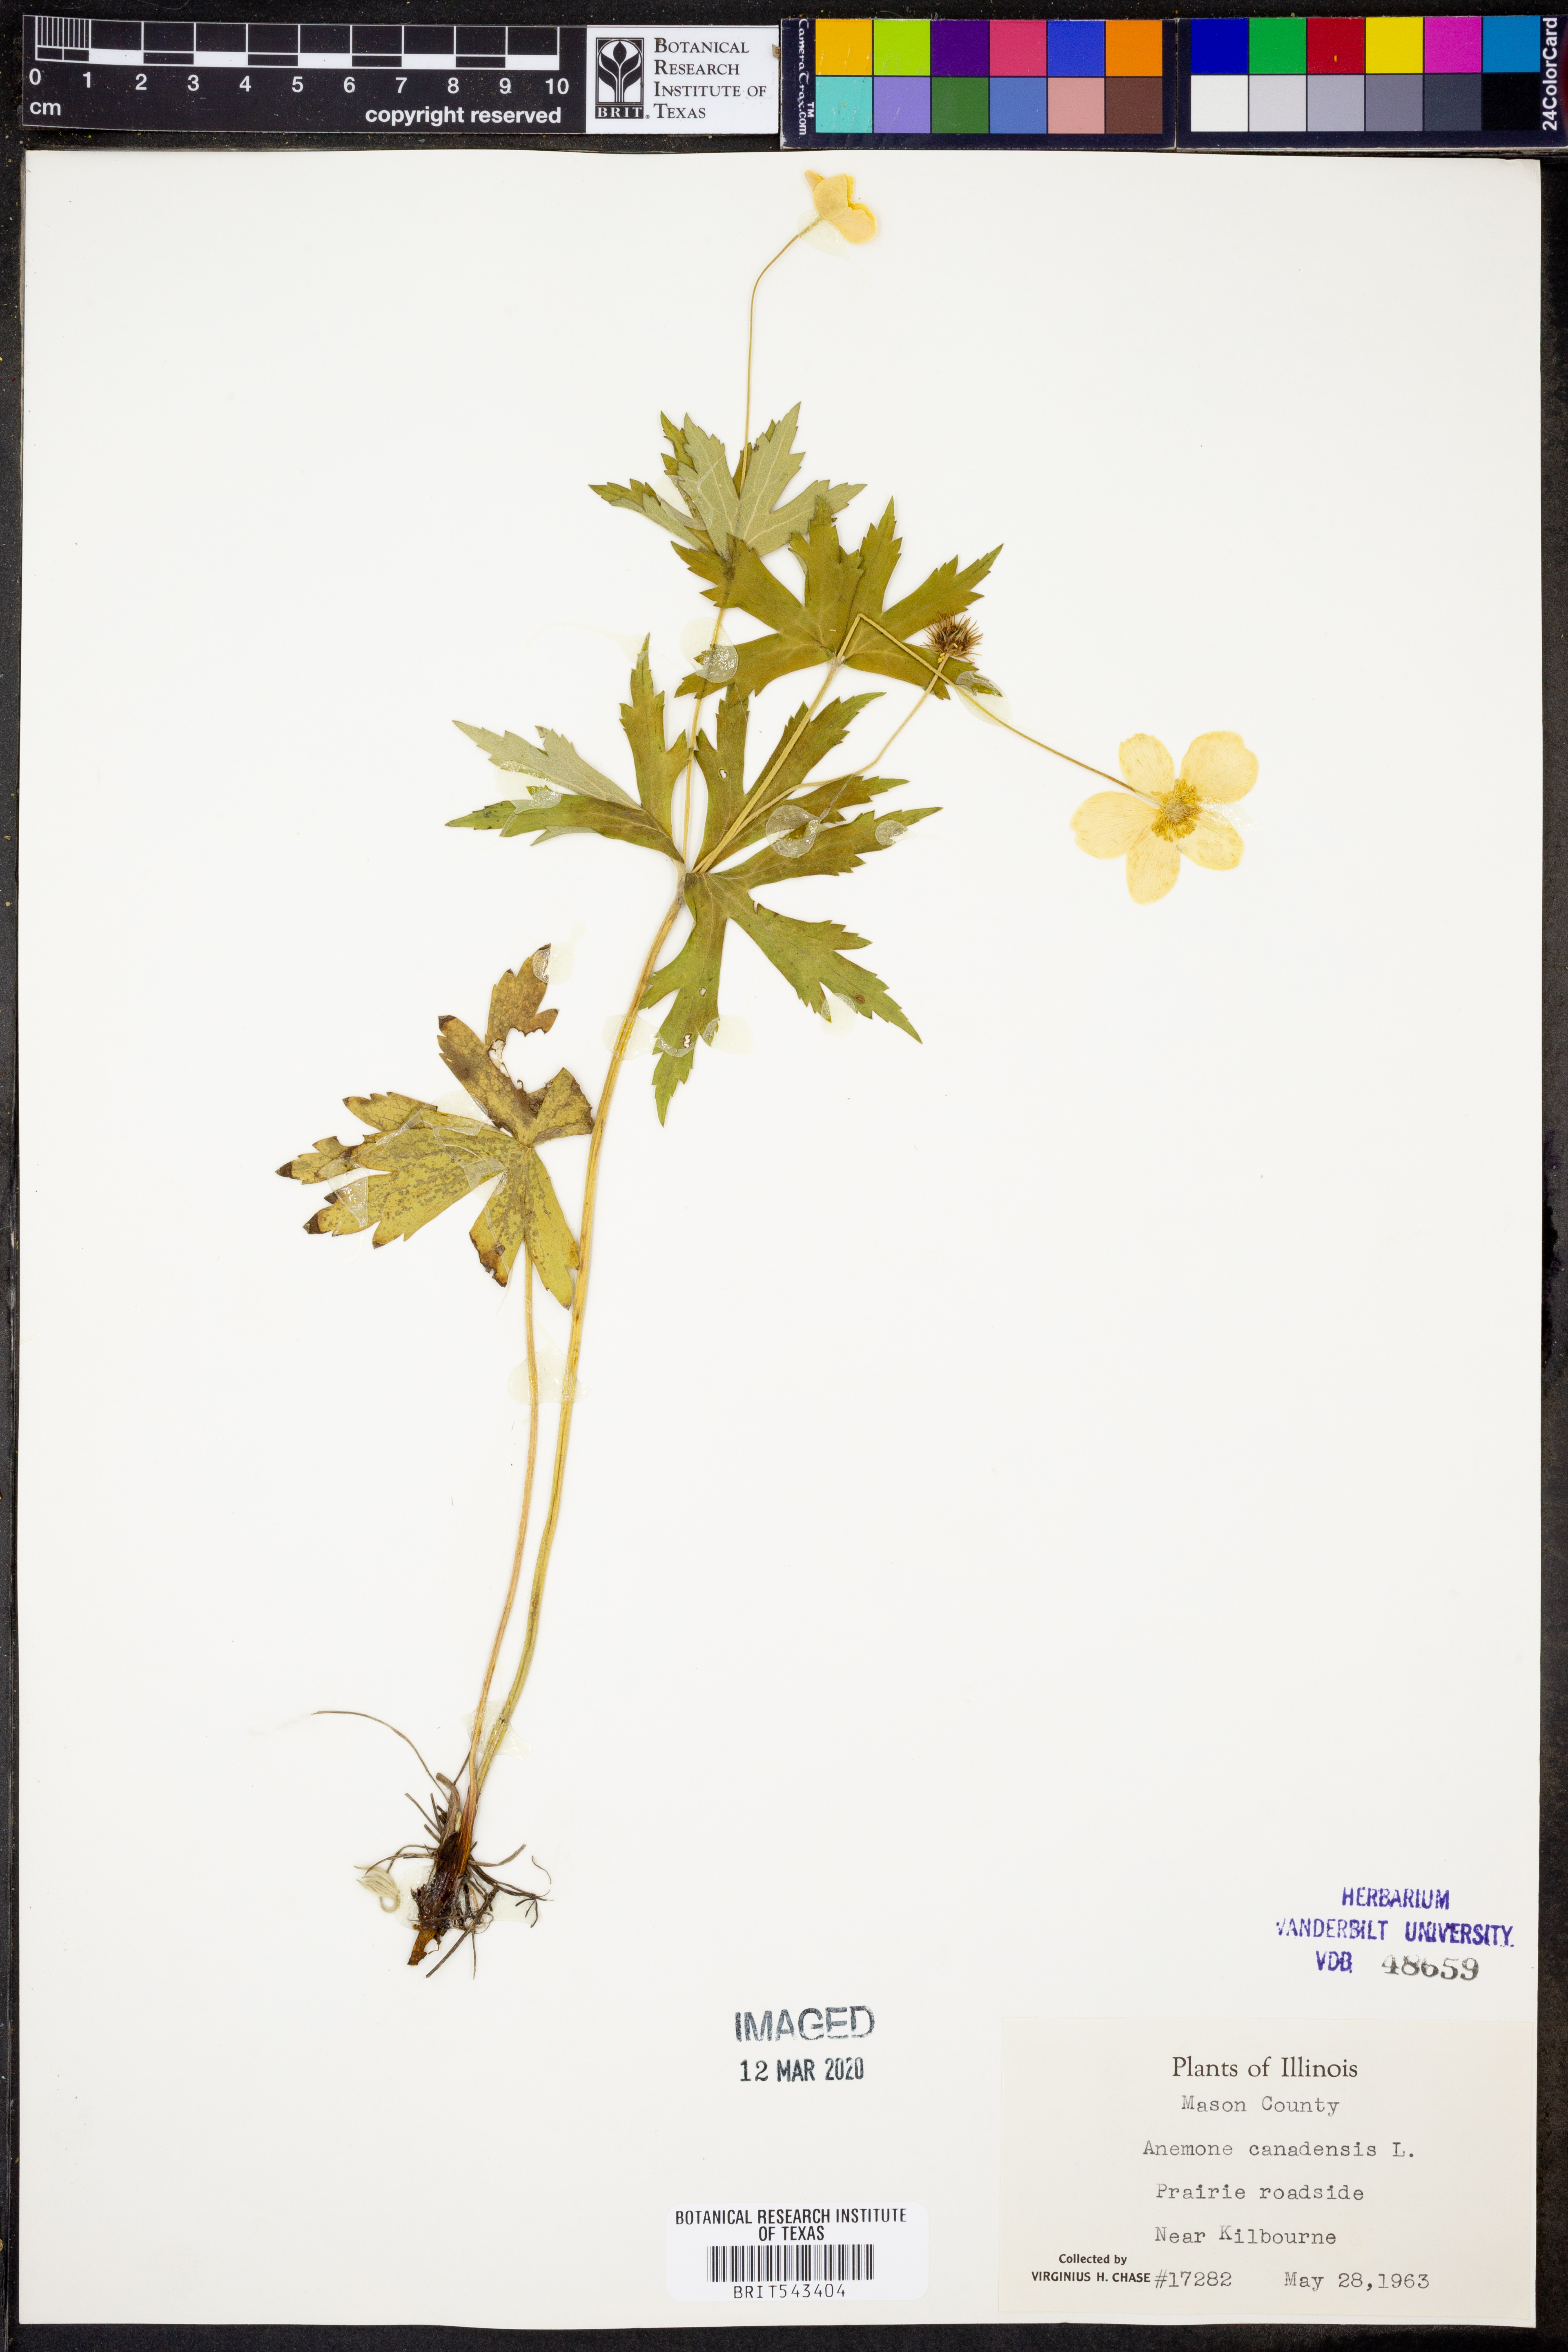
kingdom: Plantae
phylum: Tracheophyta
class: Magnoliopsida
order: Ranunculales
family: Ranunculaceae
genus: Anemonastrum
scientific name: Anemonastrum canadense
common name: Canada anemone
